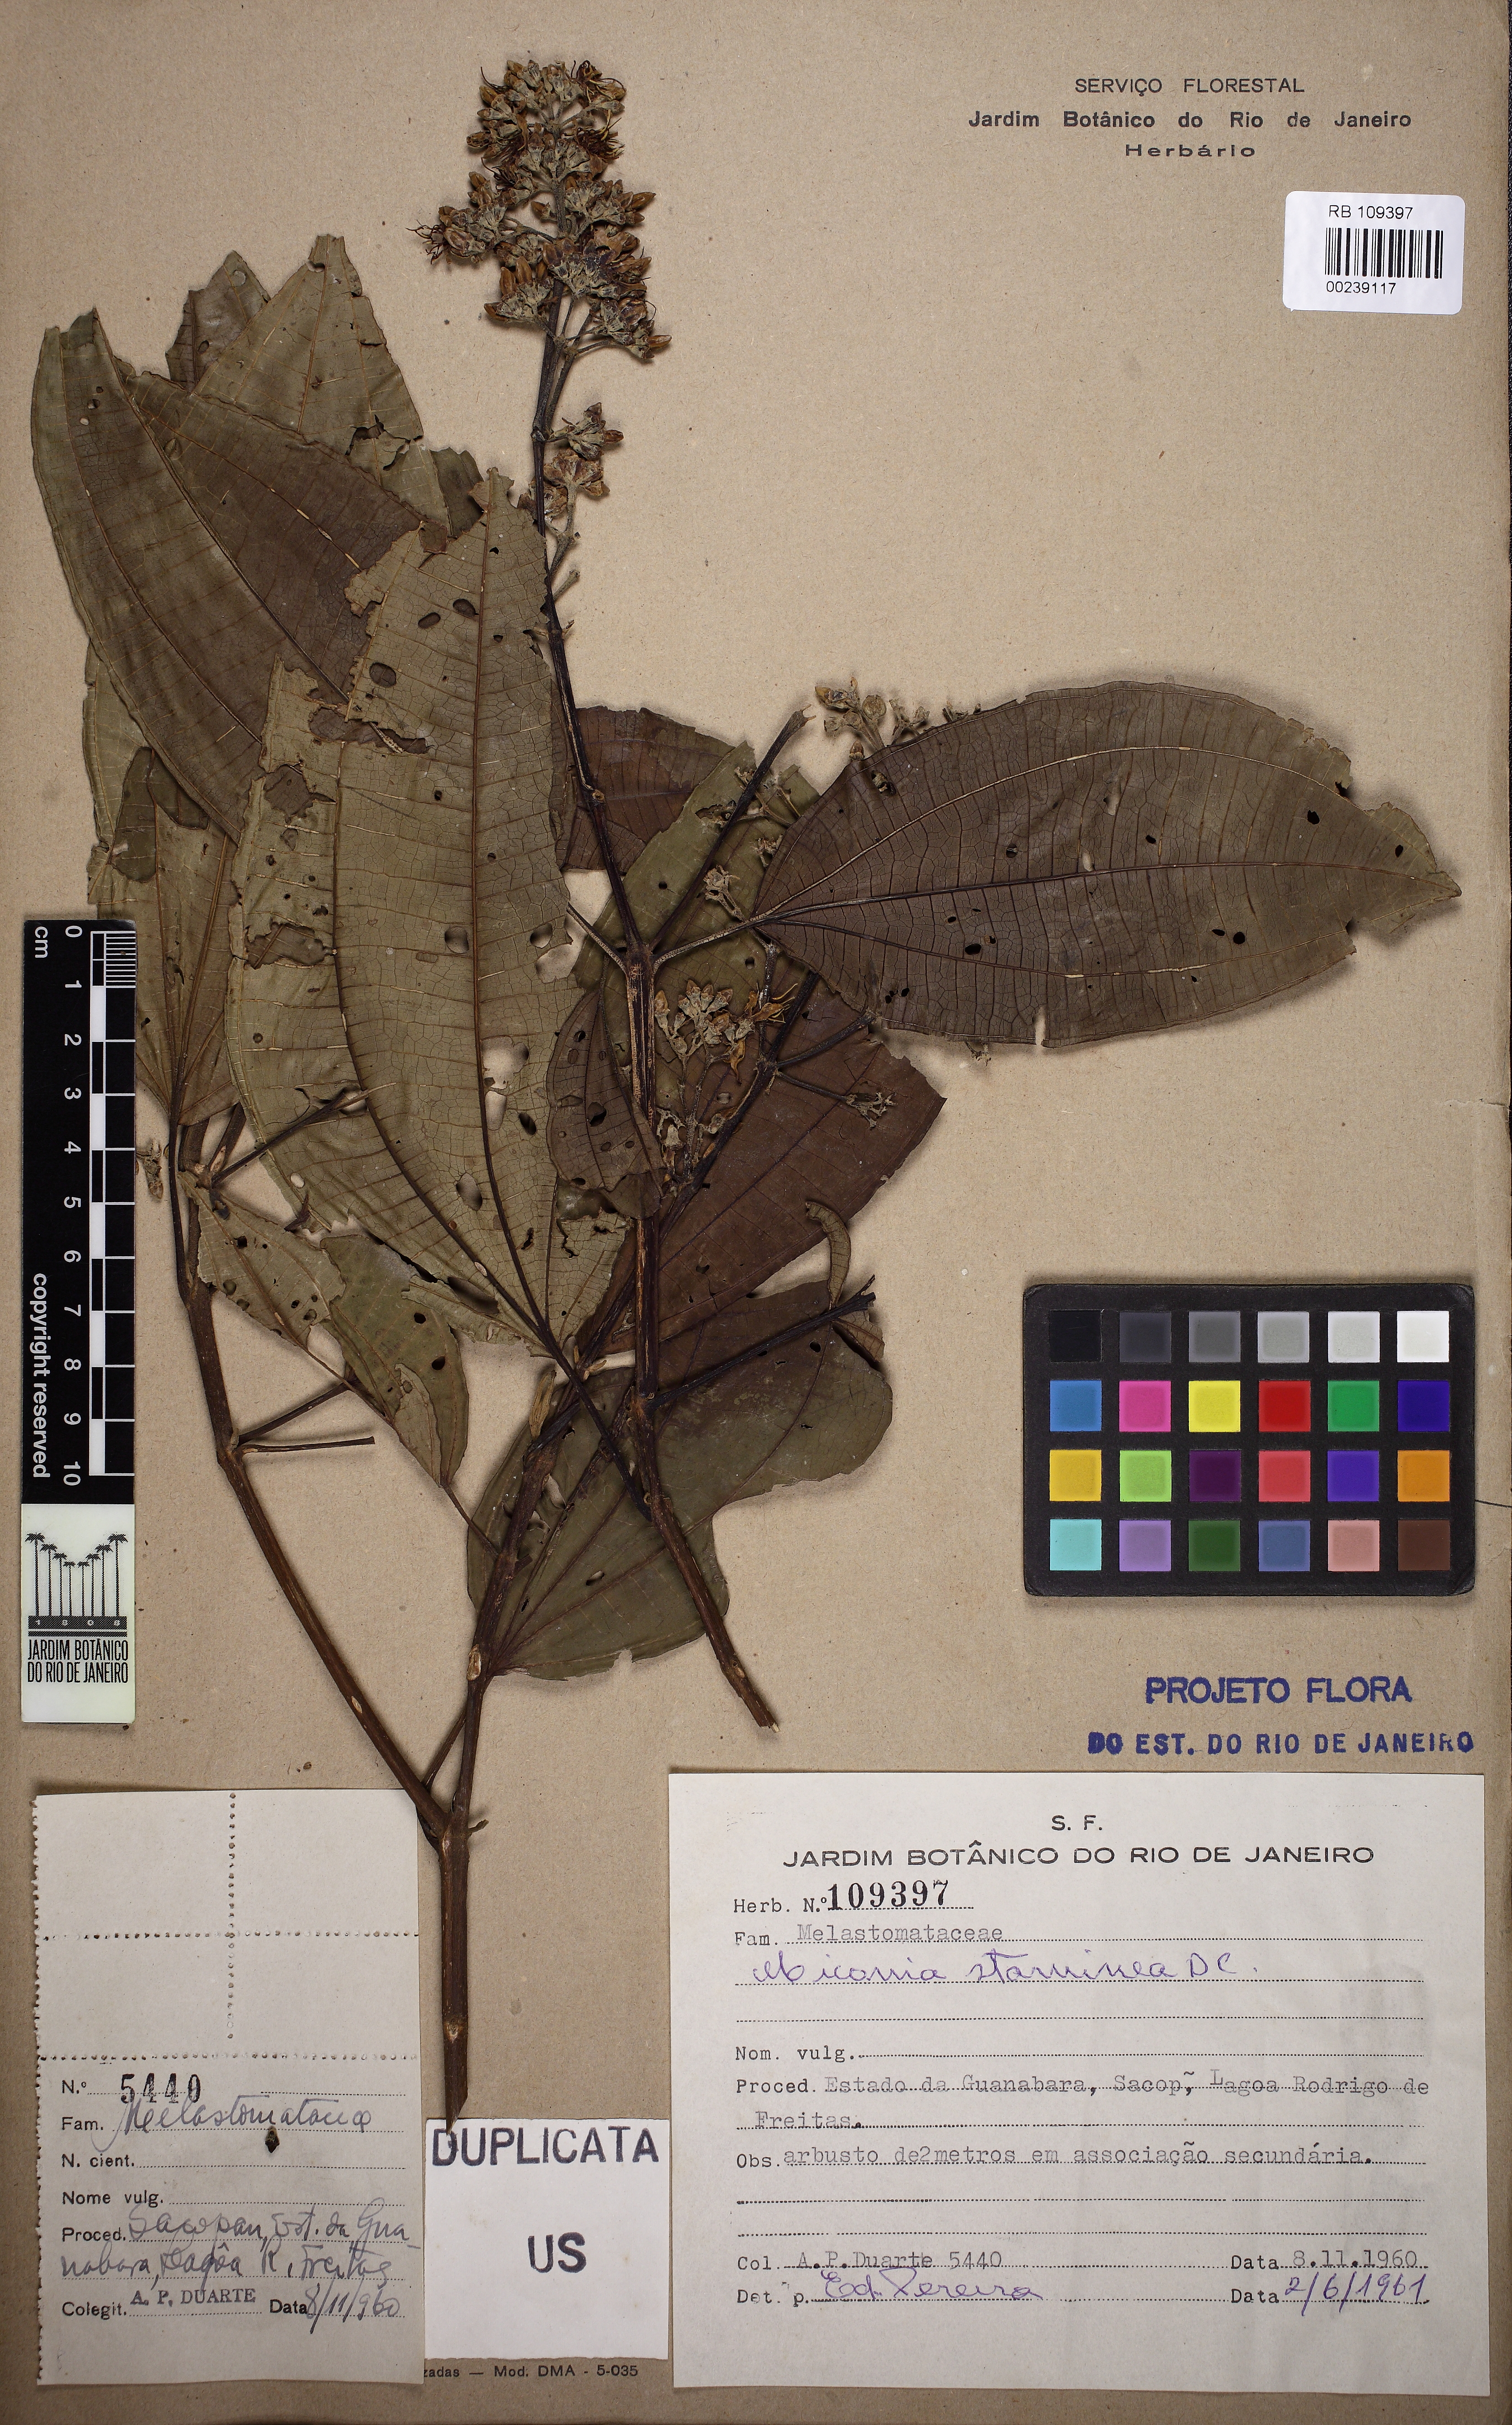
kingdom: Plantae
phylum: Tracheophyta
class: Magnoliopsida
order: Myrtales
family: Melastomataceae
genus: Miconia
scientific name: Miconia staminea
